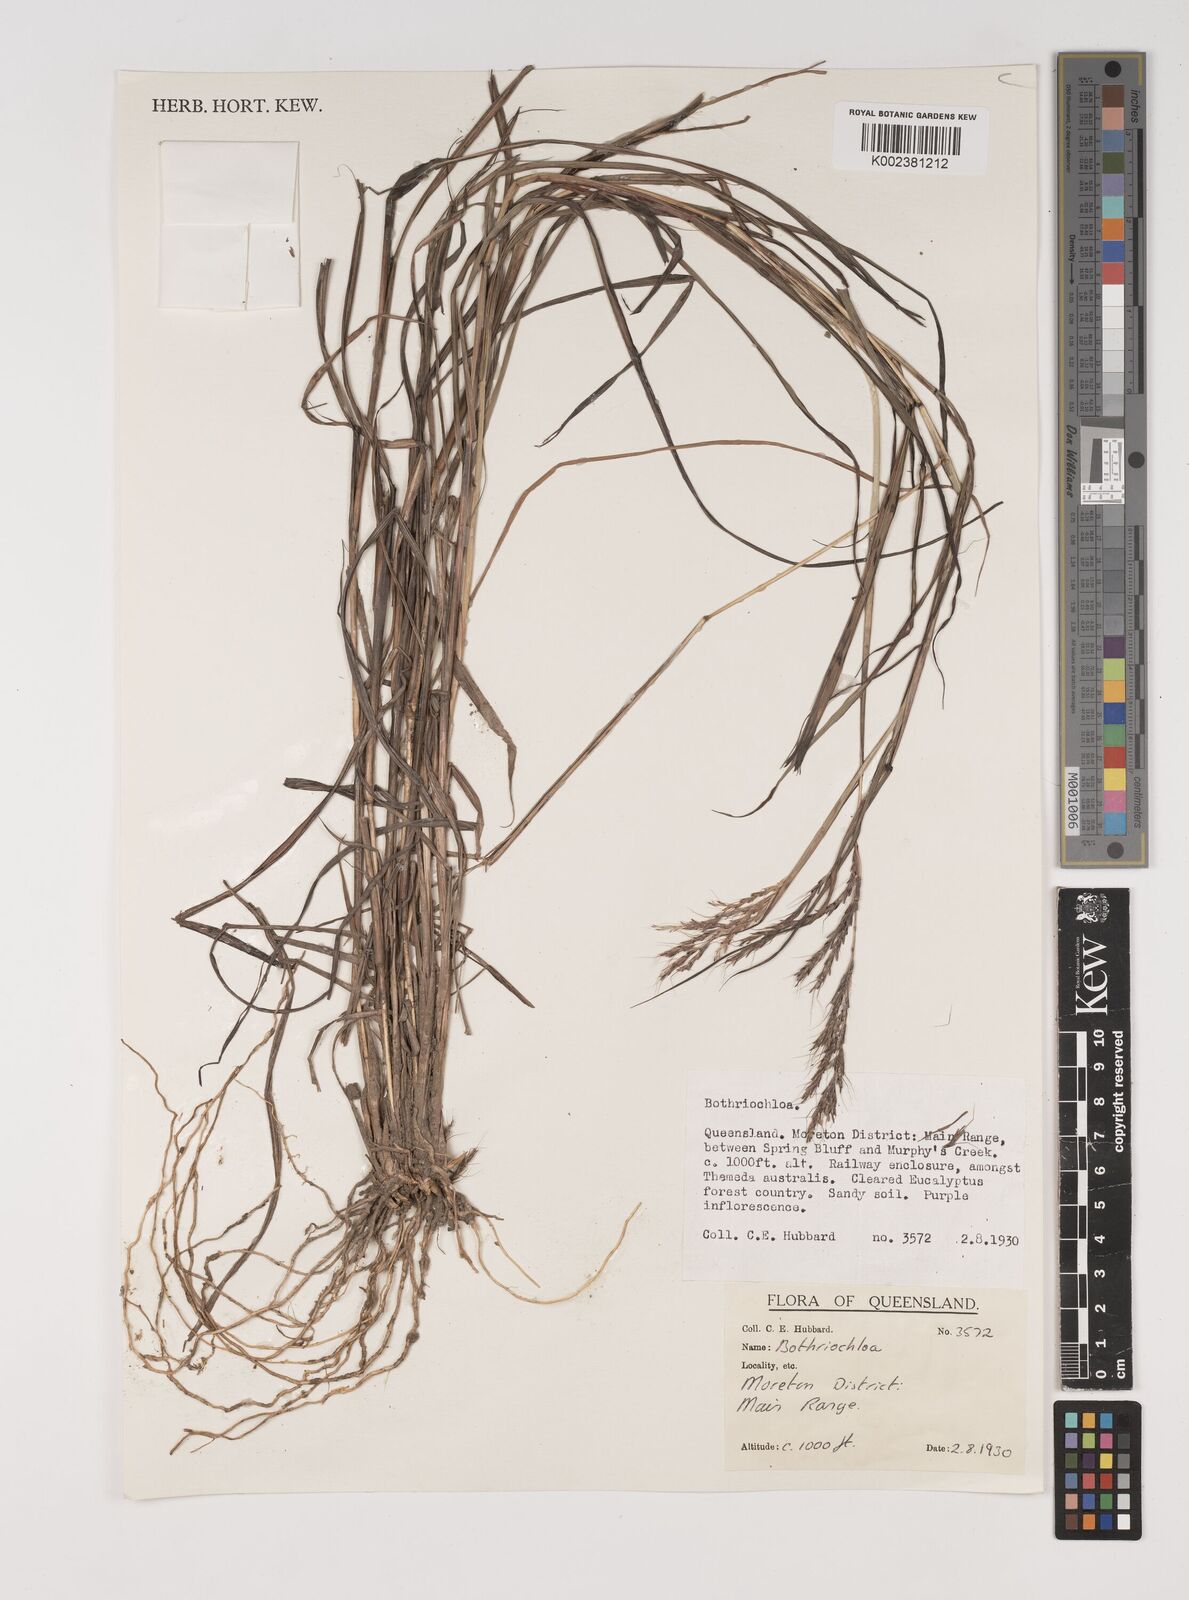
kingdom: Plantae
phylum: Tracheophyta
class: Liliopsida
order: Poales
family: Poaceae
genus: Bothriochloa
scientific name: Bothriochloa
